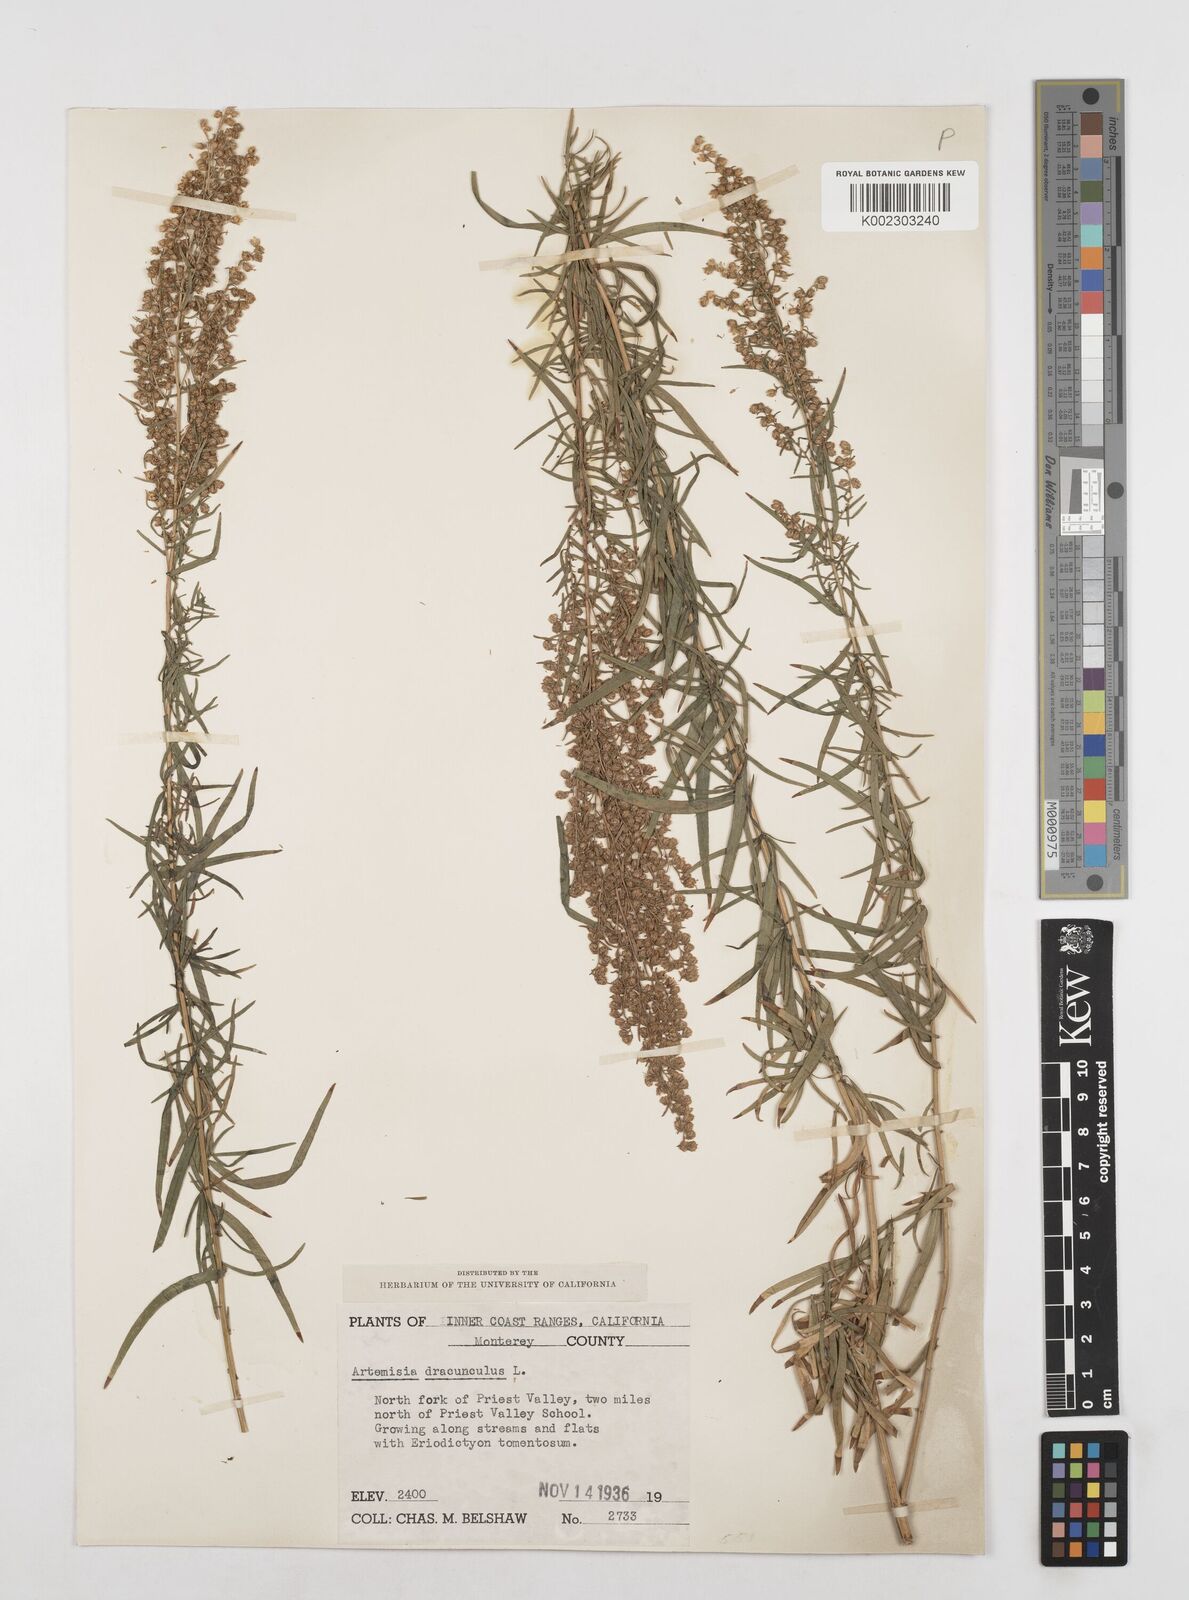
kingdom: Plantae
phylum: Tracheophyta
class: Magnoliopsida
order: Asterales
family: Asteraceae
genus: Artemisia
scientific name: Artemisia dracunculus
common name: Tarragon
